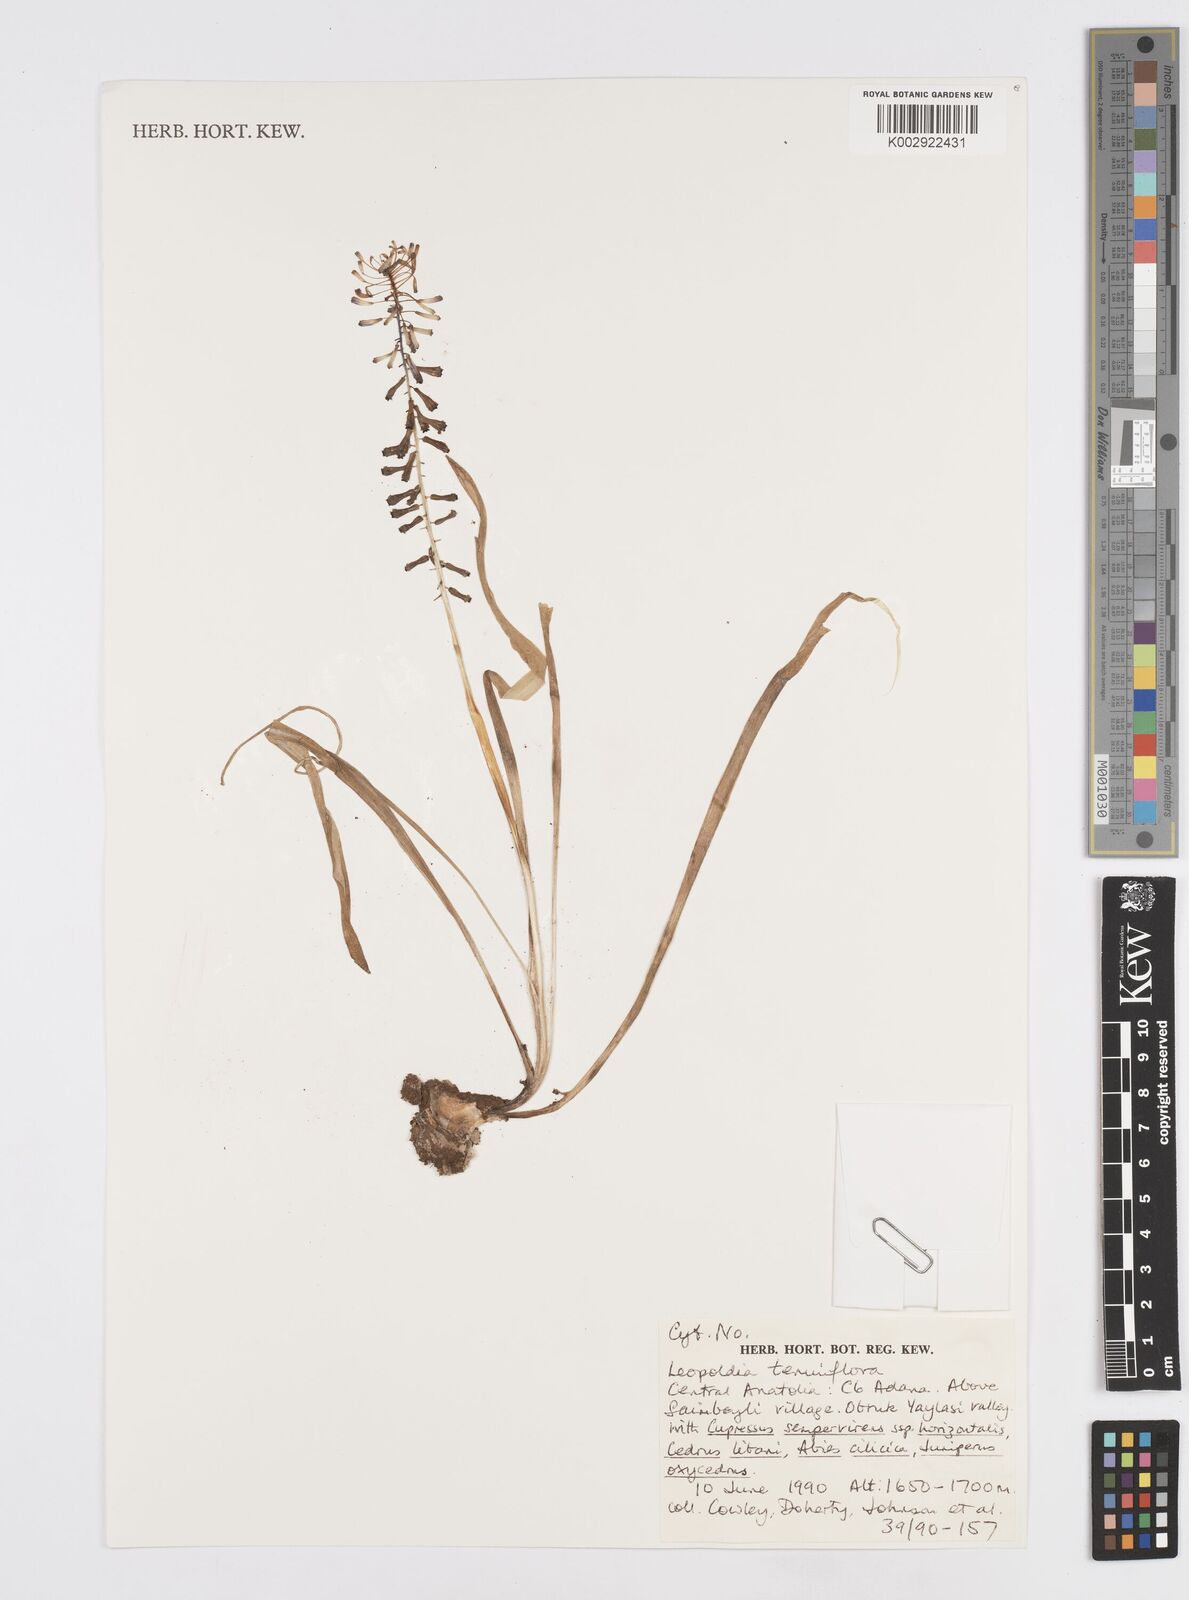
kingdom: Plantae
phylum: Tracheophyta
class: Liliopsida
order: Asparagales
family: Asparagaceae
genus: Muscari
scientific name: Muscari tenuiflorum
